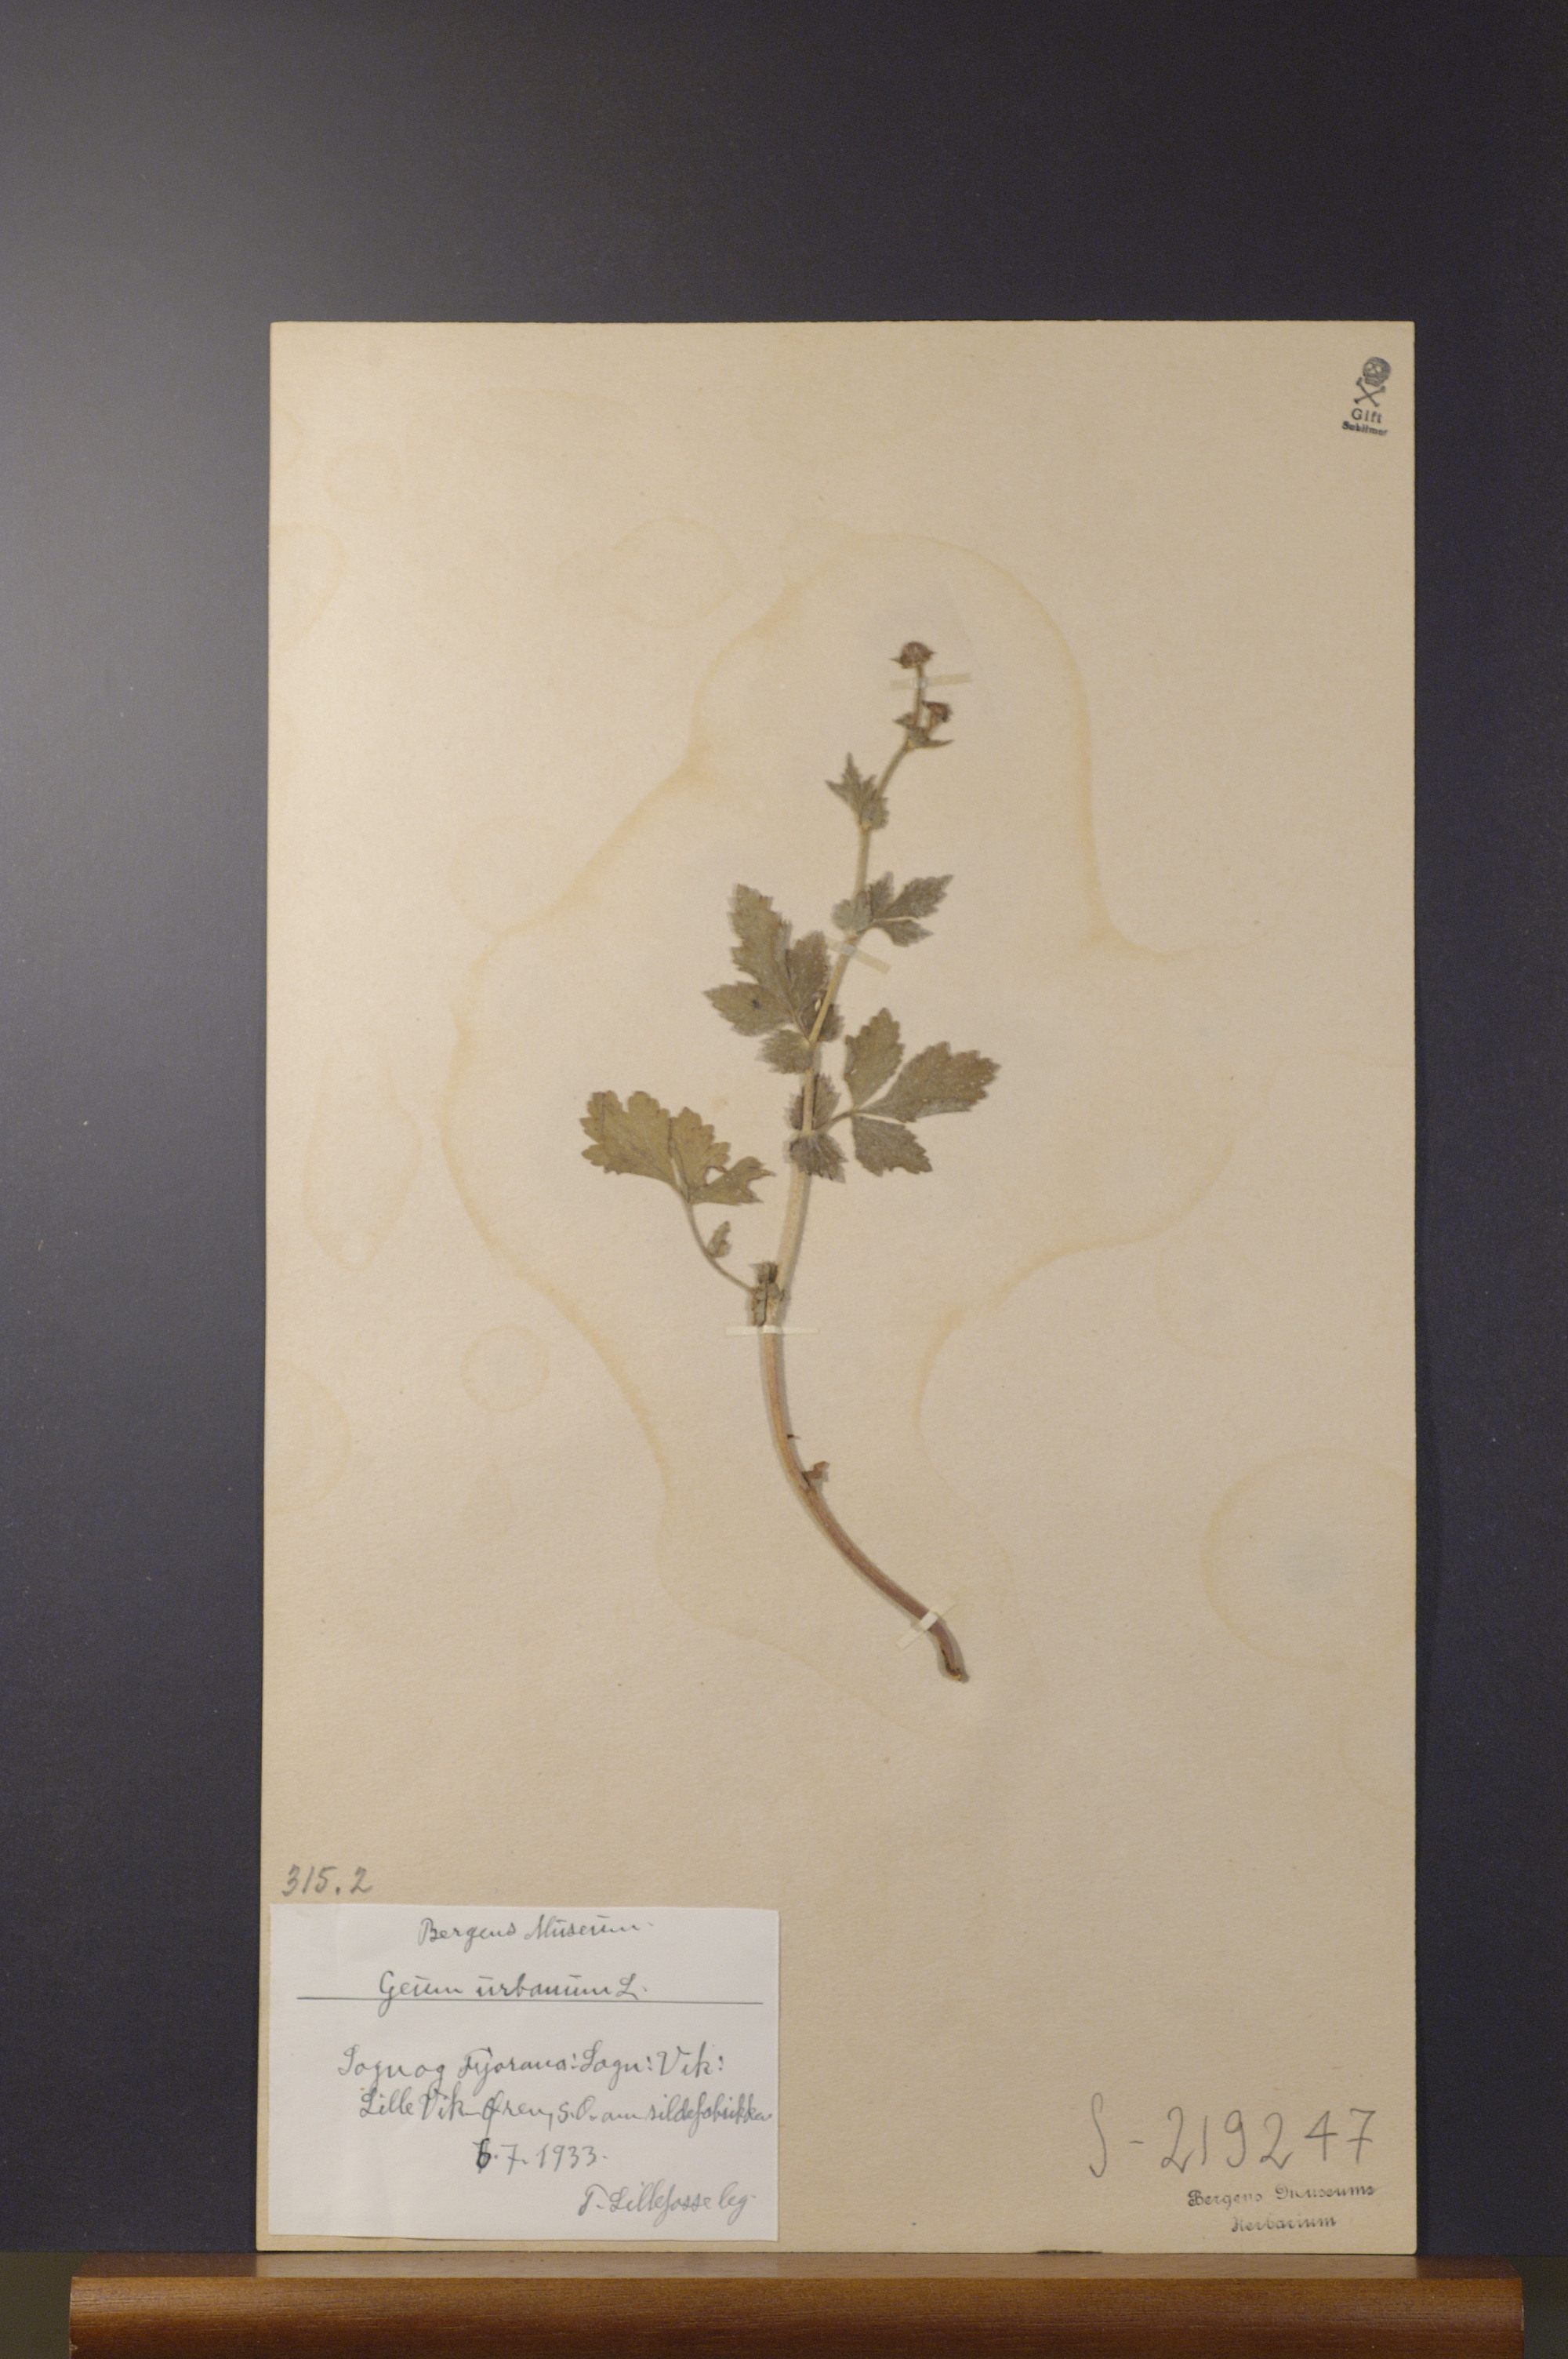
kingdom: Plantae
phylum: Tracheophyta
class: Magnoliopsida
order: Rosales
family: Rosaceae
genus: Geum
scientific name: Geum urbanum
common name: Wood avens
